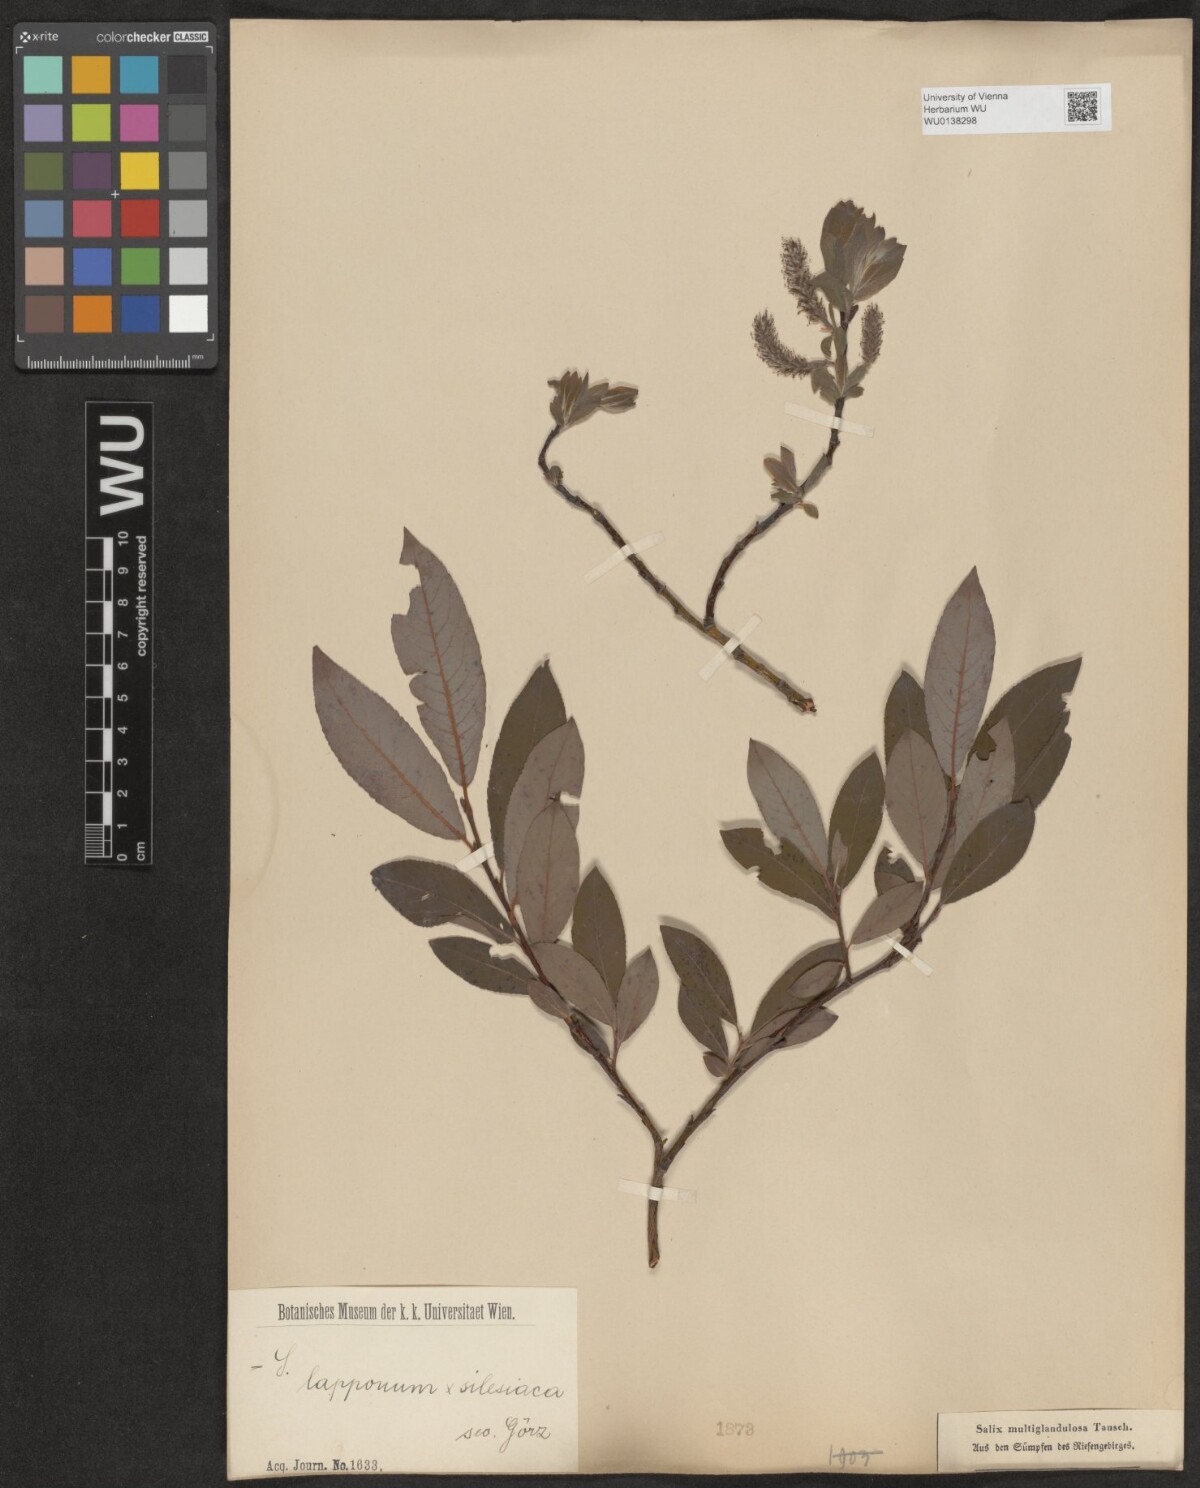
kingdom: Plantae
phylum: Tracheophyta
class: Magnoliopsida
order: Malpighiales
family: Salicaceae
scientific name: Salicaceae
